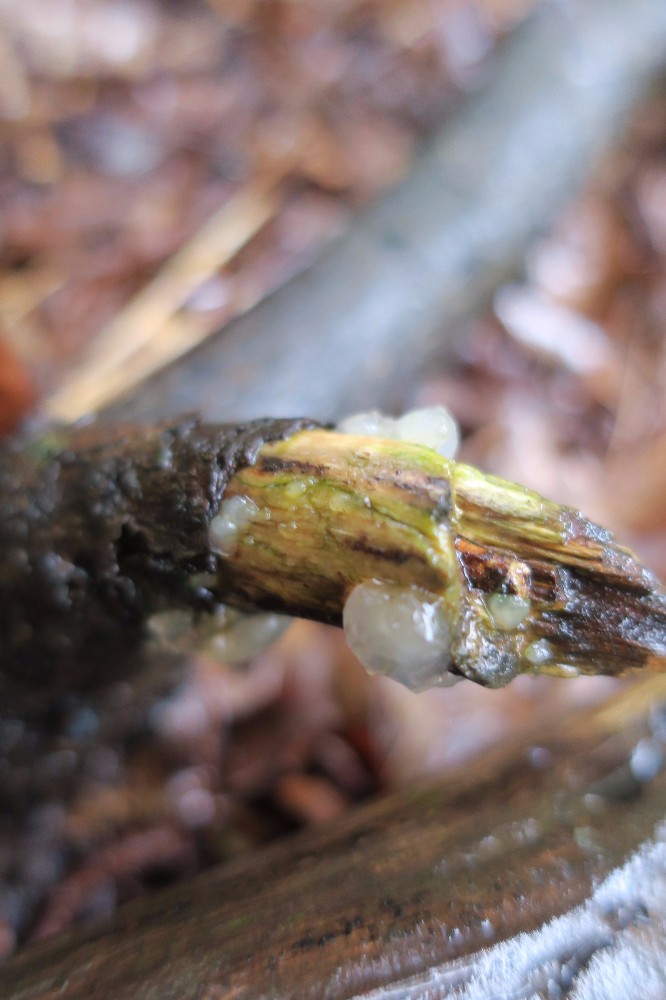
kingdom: Fungi
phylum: Basidiomycota
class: Agaricomycetes
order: Auriculariales
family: Hyaloriaceae
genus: Myxarium
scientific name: Myxarium nucleatum
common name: klar bævretop
